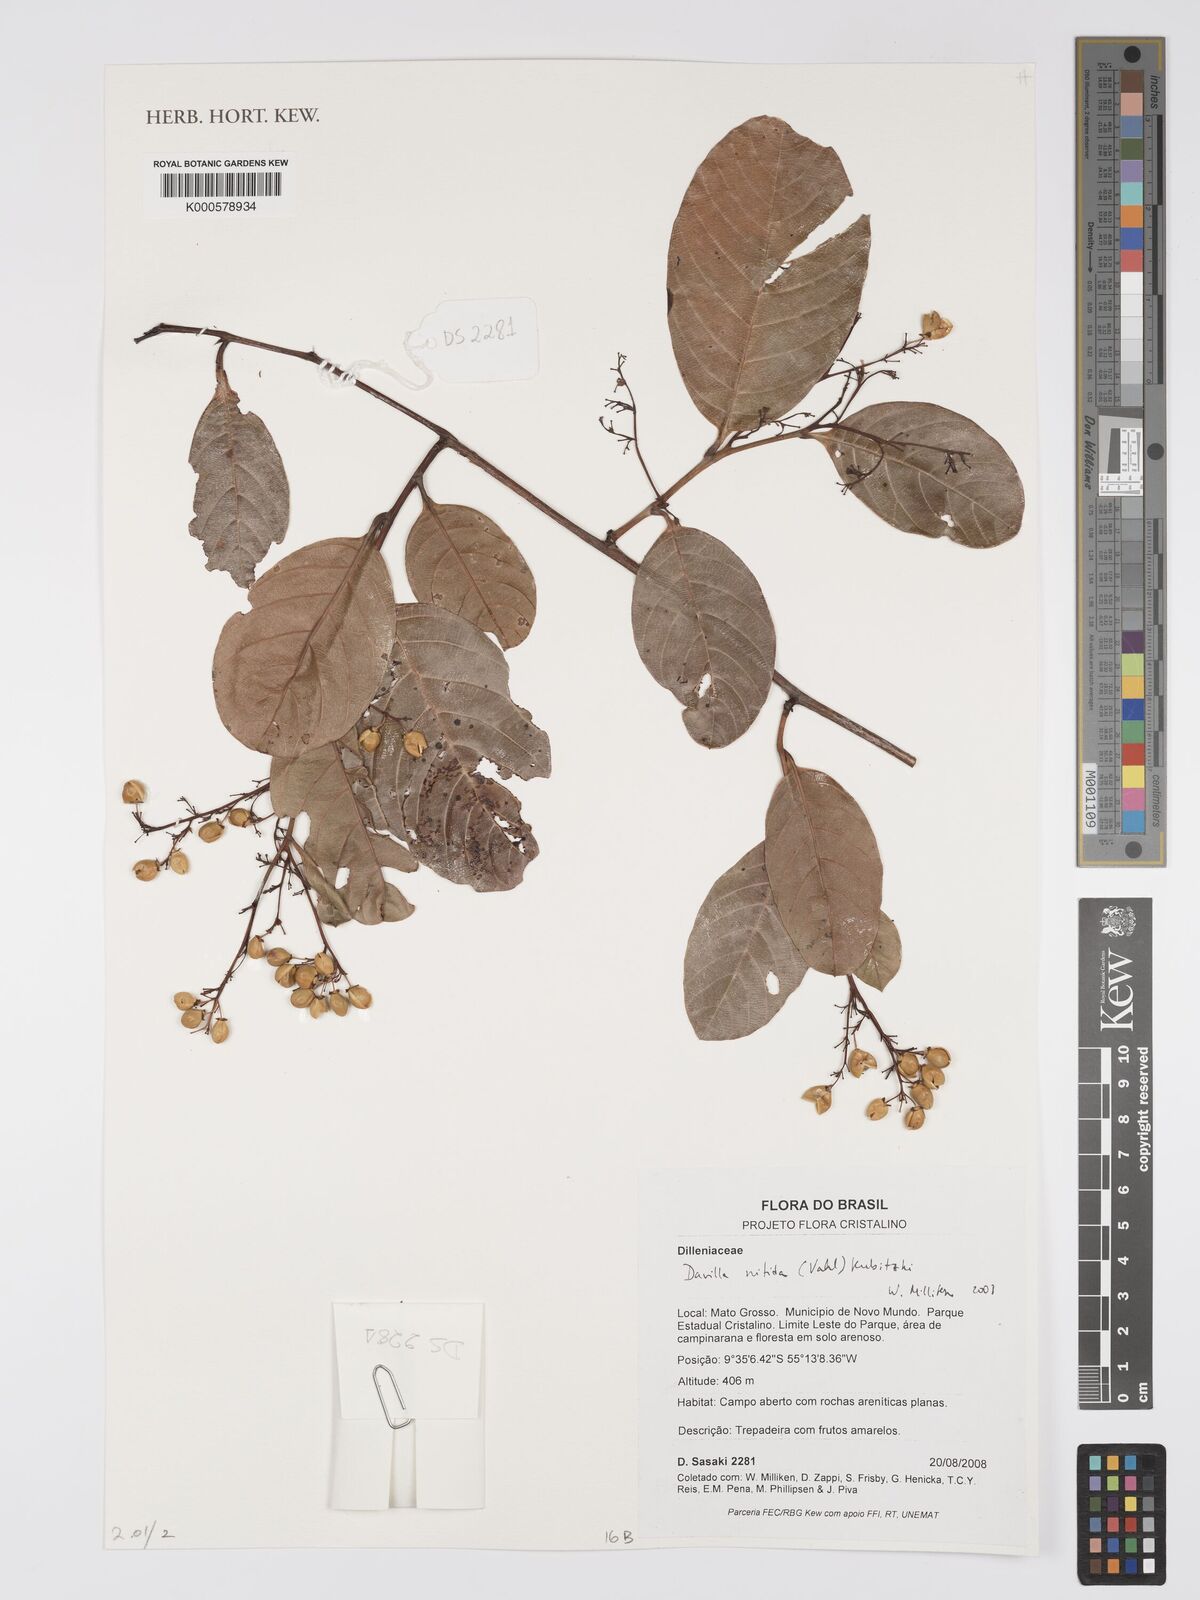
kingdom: Plantae
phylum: Tracheophyta
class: Magnoliopsida
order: Dilleniales
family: Dilleniaceae
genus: Davilla
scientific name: Davilla nitida
